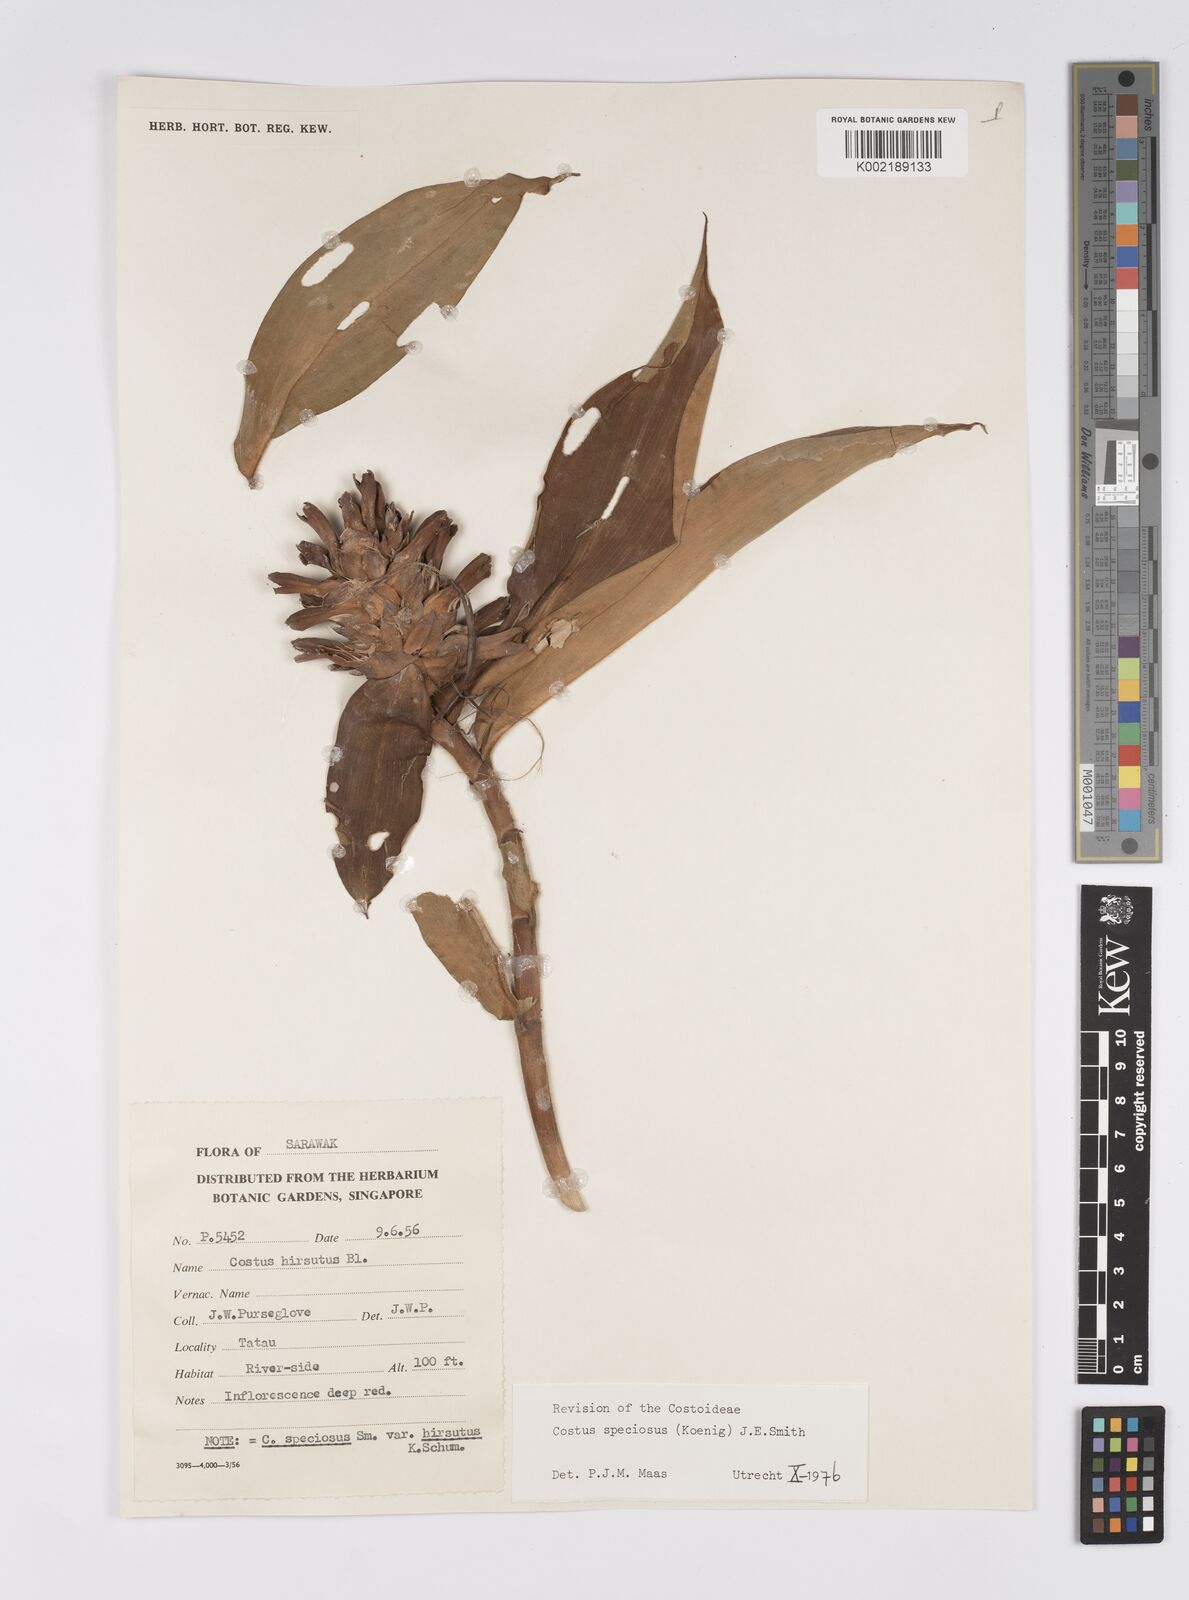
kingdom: Plantae
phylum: Tracheophyta
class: Liliopsida
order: Zingiberales
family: Costaceae
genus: Hellenia
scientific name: Hellenia speciosa
